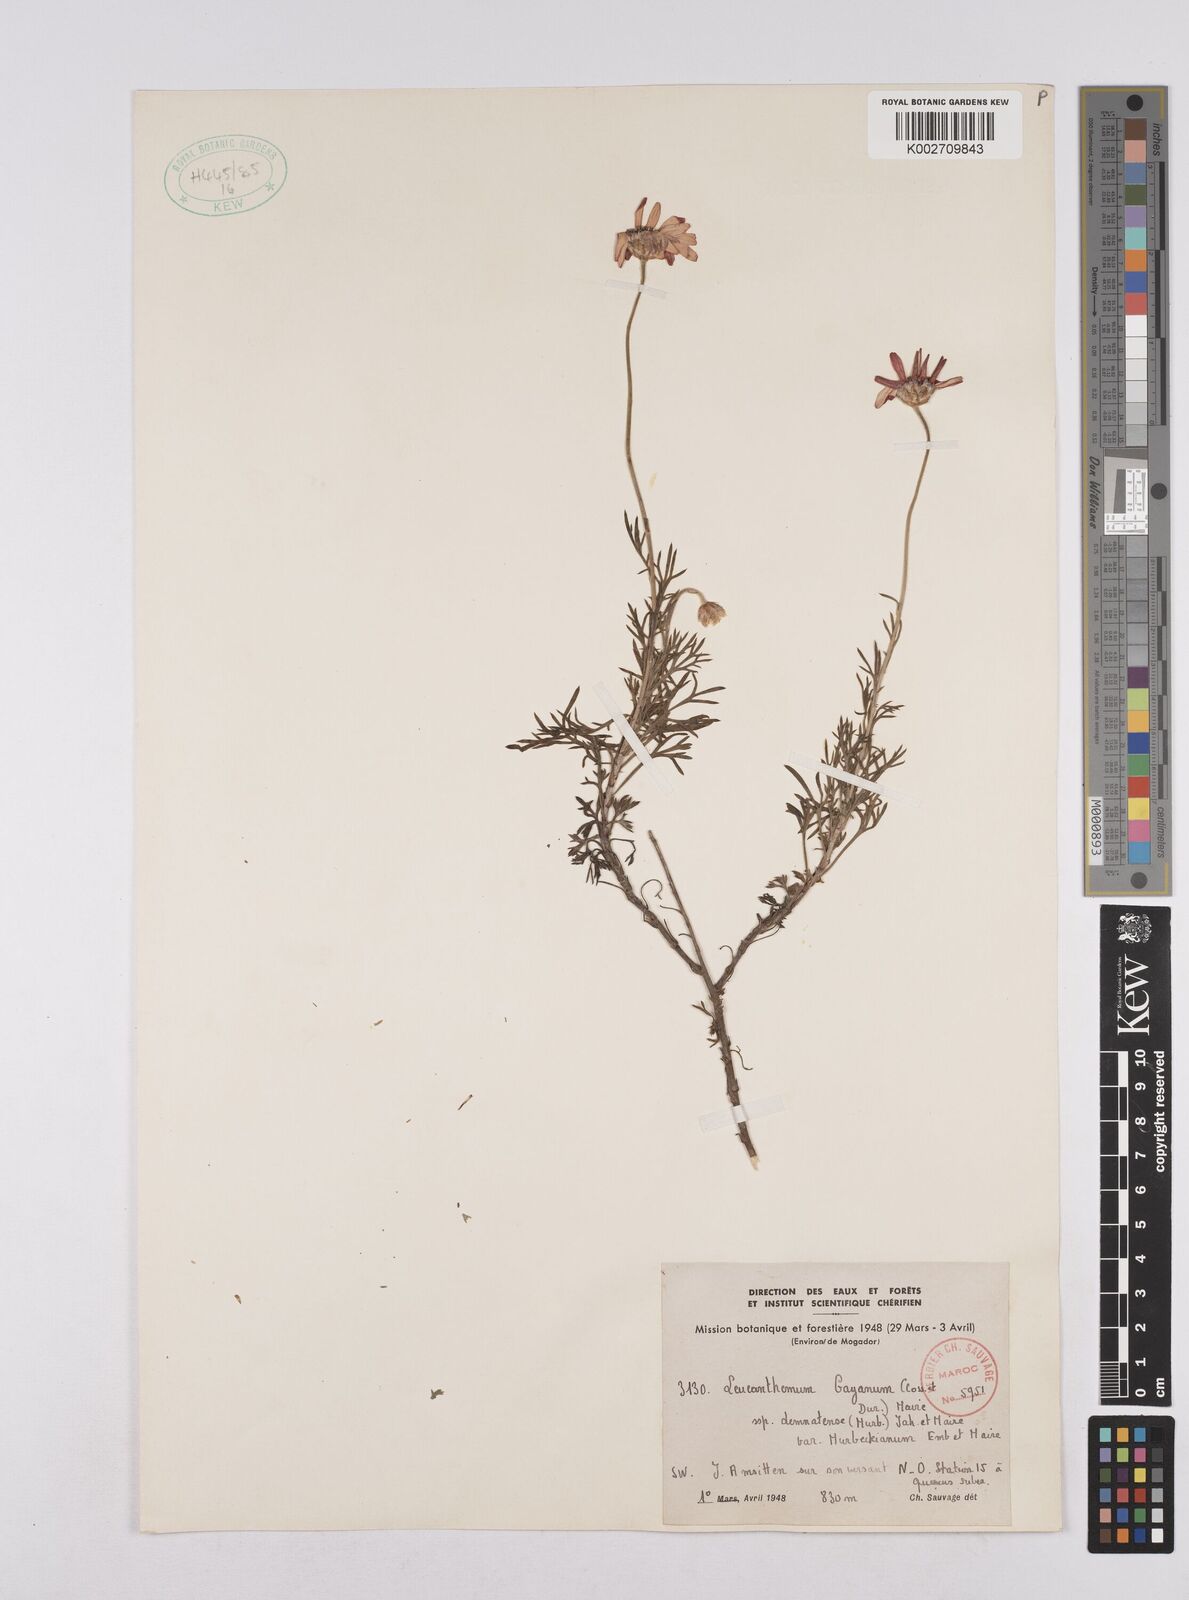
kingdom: Plantae
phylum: Tracheophyta
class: Magnoliopsida
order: Asterales
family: Asteraceae
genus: Rhodanthemum
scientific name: Rhodanthemum gayanum
